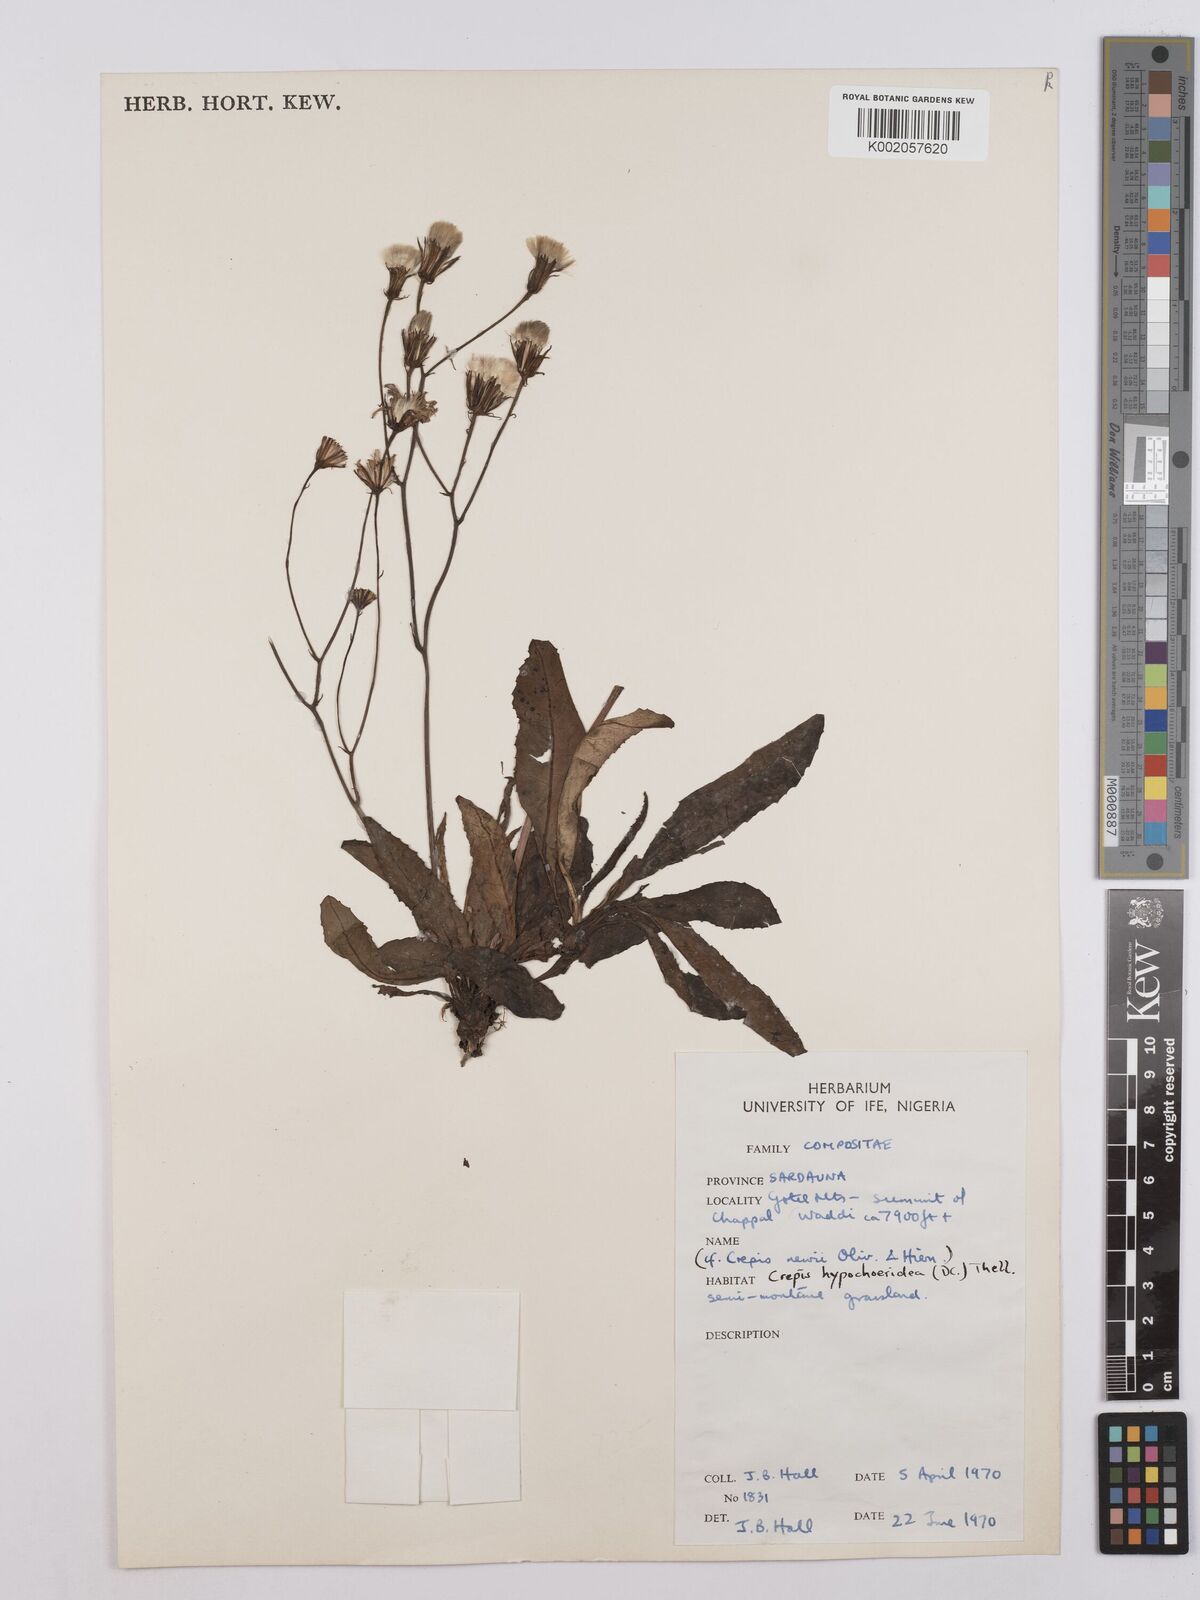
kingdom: Plantae
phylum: Tracheophyta
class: Magnoliopsida
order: Asterales
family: Asteraceae
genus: Crepis
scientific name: Crepis hypochoeridea
